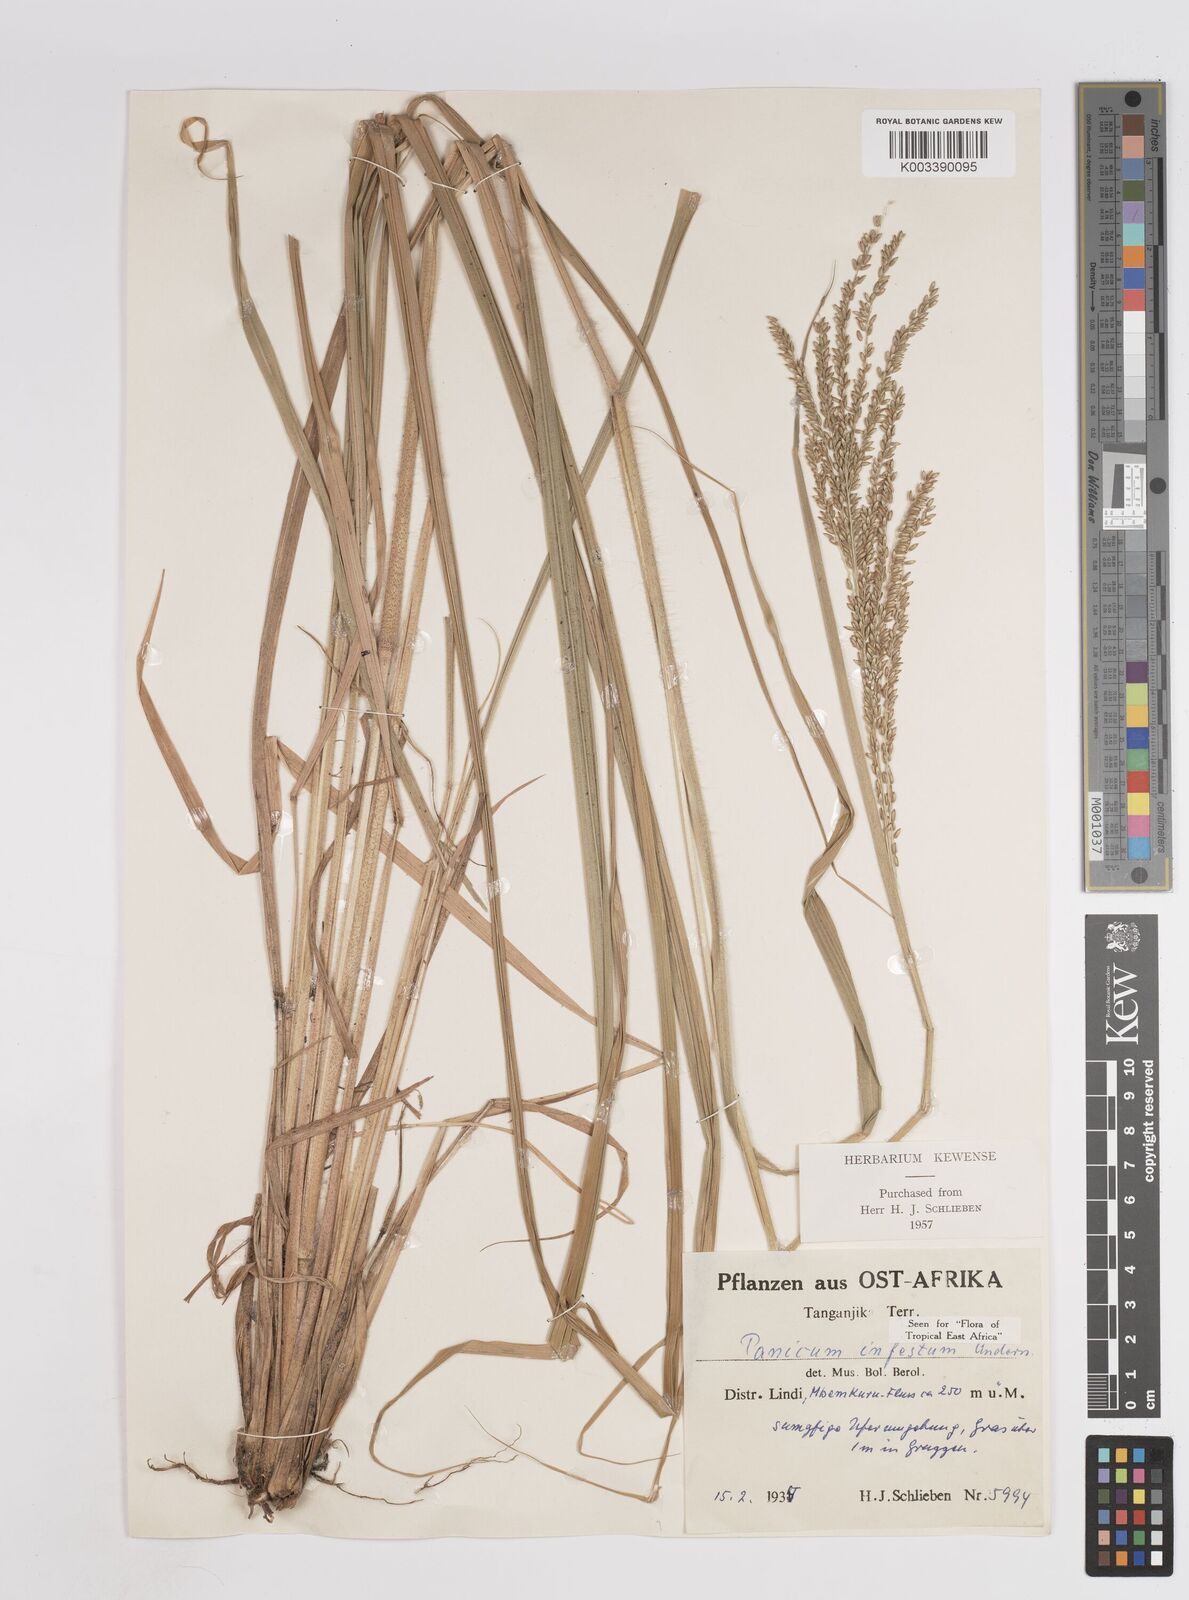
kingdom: Plantae
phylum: Tracheophyta
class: Liliopsida
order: Poales
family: Poaceae
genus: Megathyrsus
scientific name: Megathyrsus infestus
